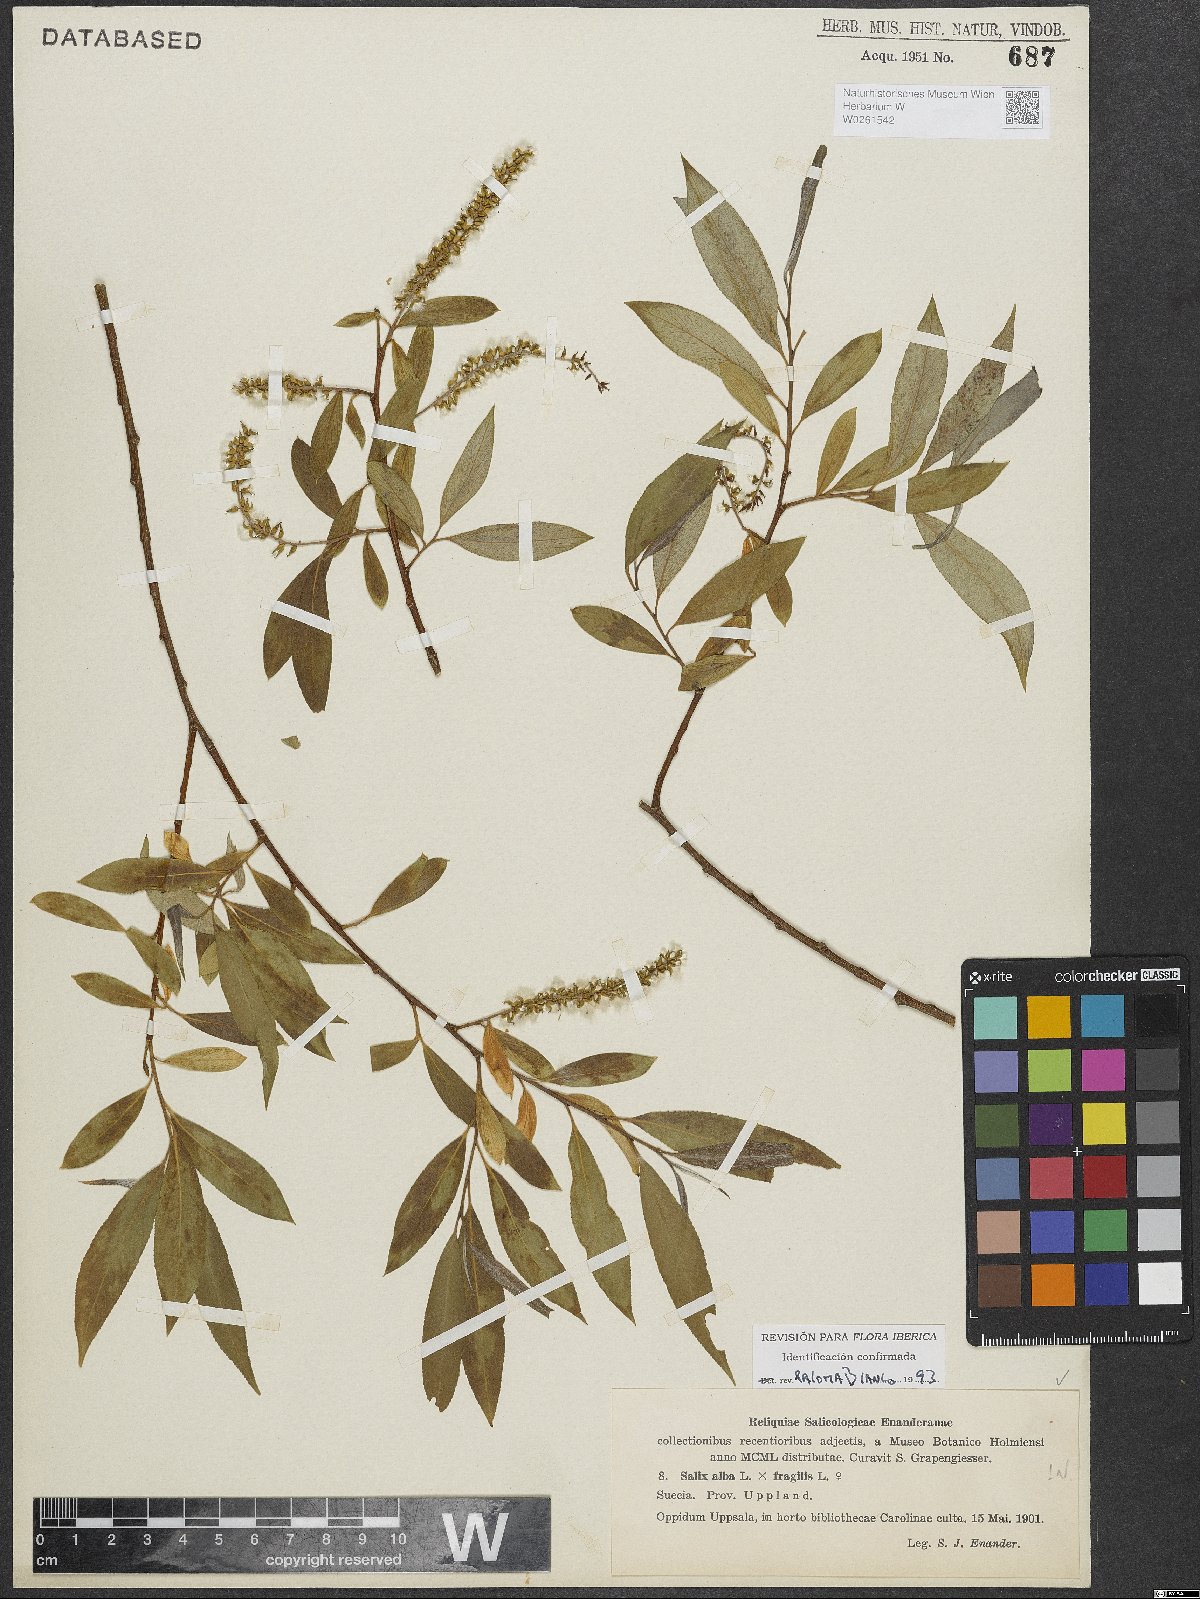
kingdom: Plantae
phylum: Tracheophyta
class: Magnoliopsida
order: Malpighiales
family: Salicaceae
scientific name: Salicaceae
